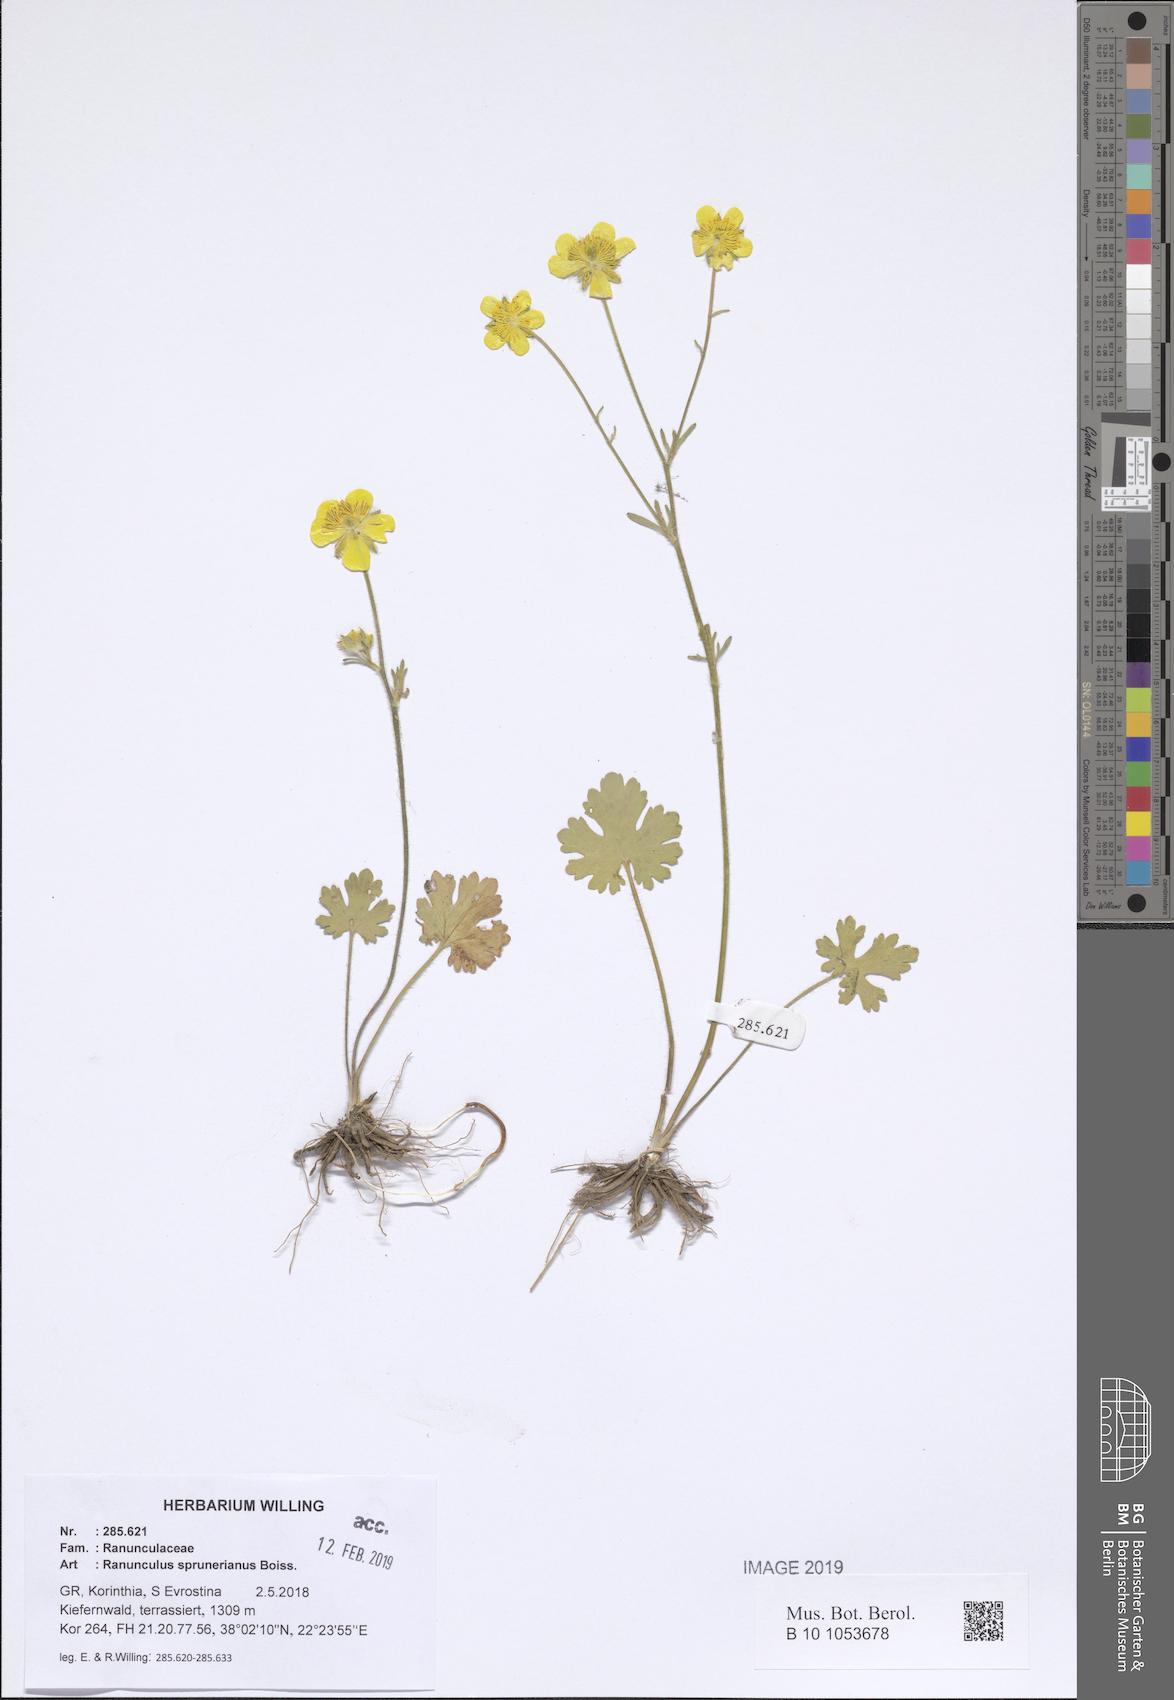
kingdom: Plantae
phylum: Tracheophyta
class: Magnoliopsida
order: Ranunculales
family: Ranunculaceae
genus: Ranunculus
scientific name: Ranunculus sprunerianus
